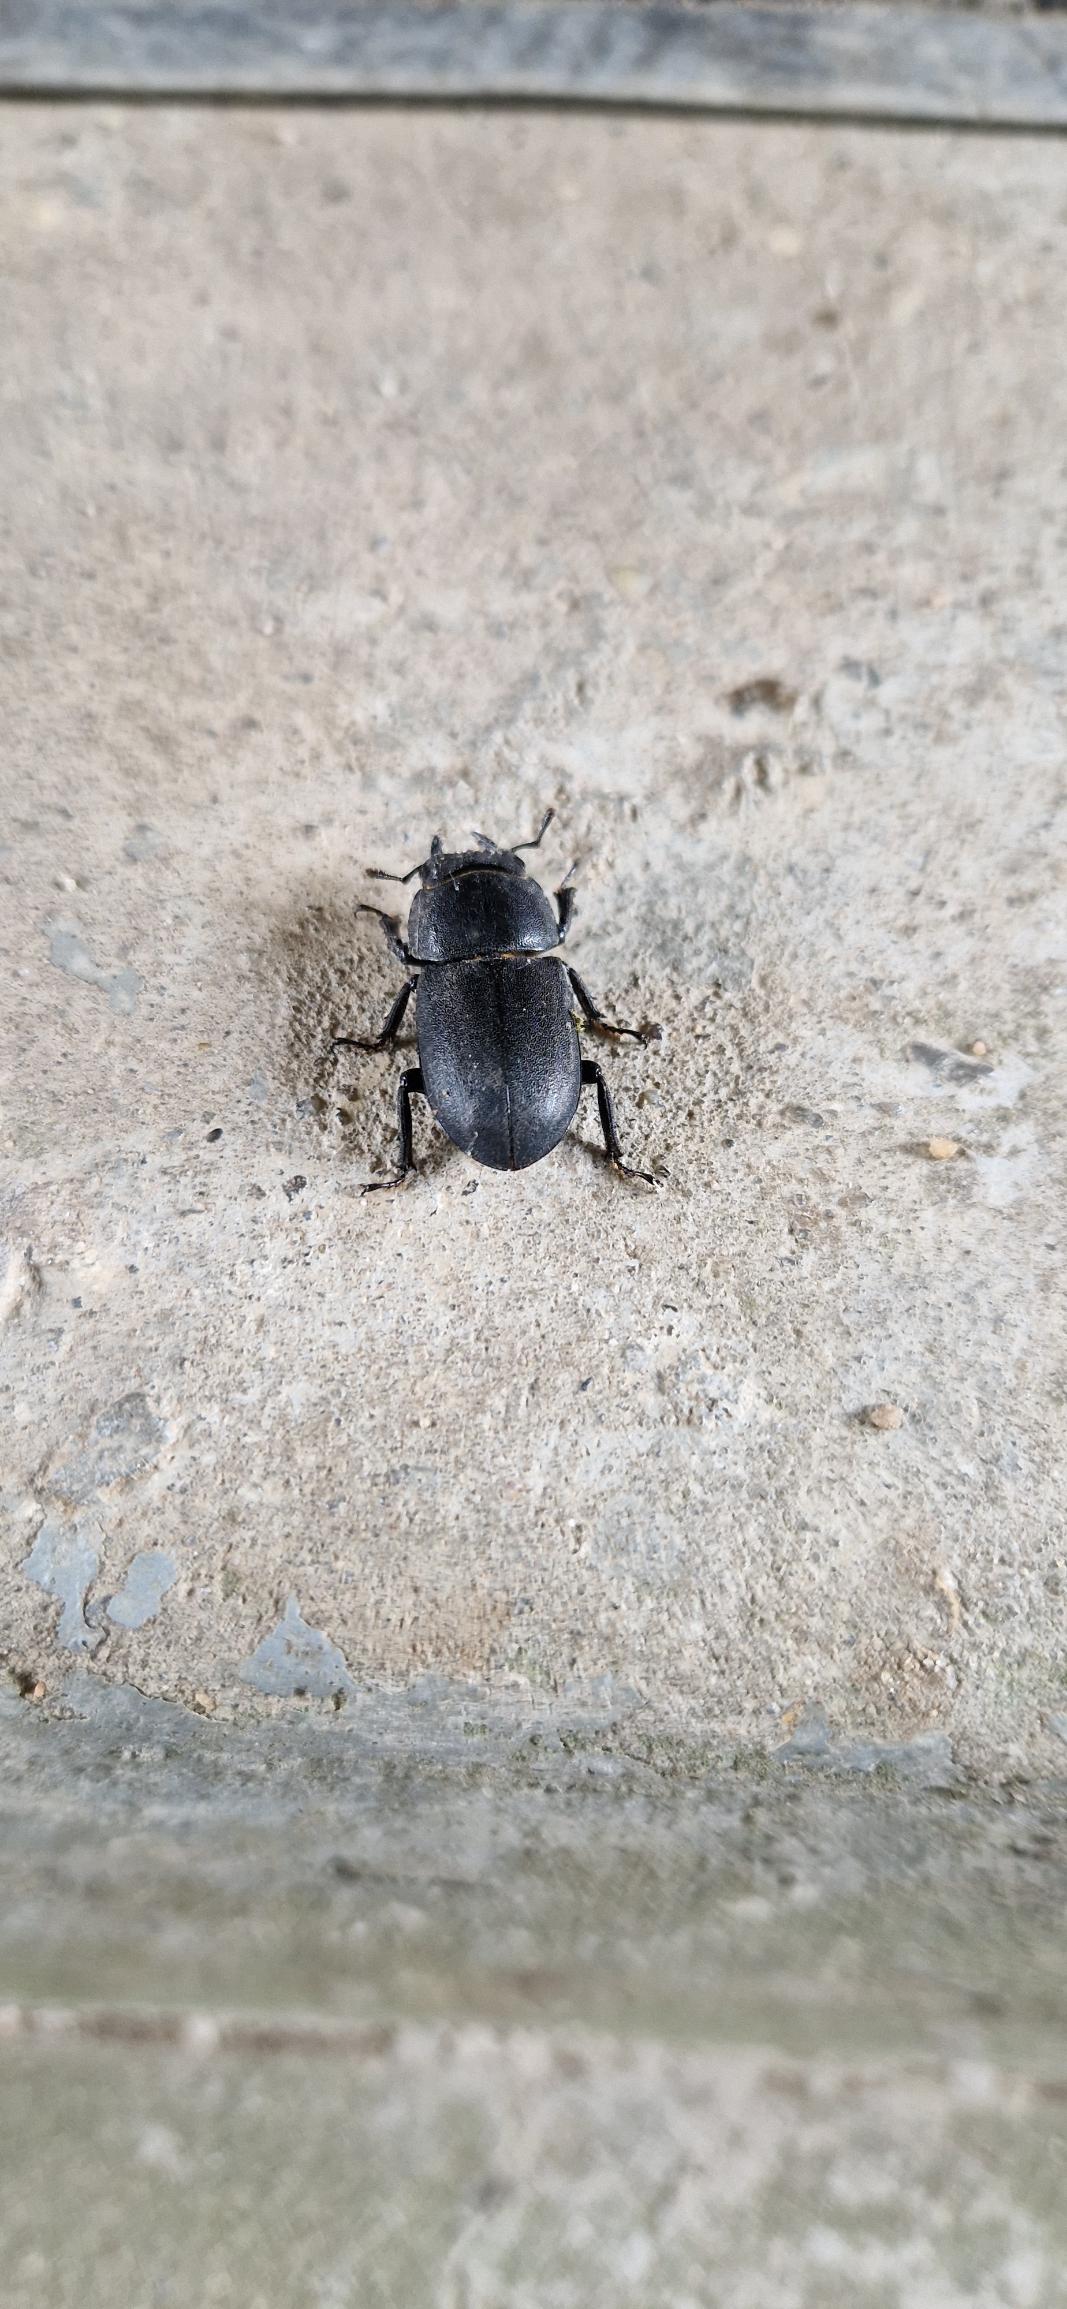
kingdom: Animalia
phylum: Arthropoda
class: Insecta
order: Coleoptera
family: Lucanidae
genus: Dorcus
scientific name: Dorcus parallelipipedus
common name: Bøghjort
